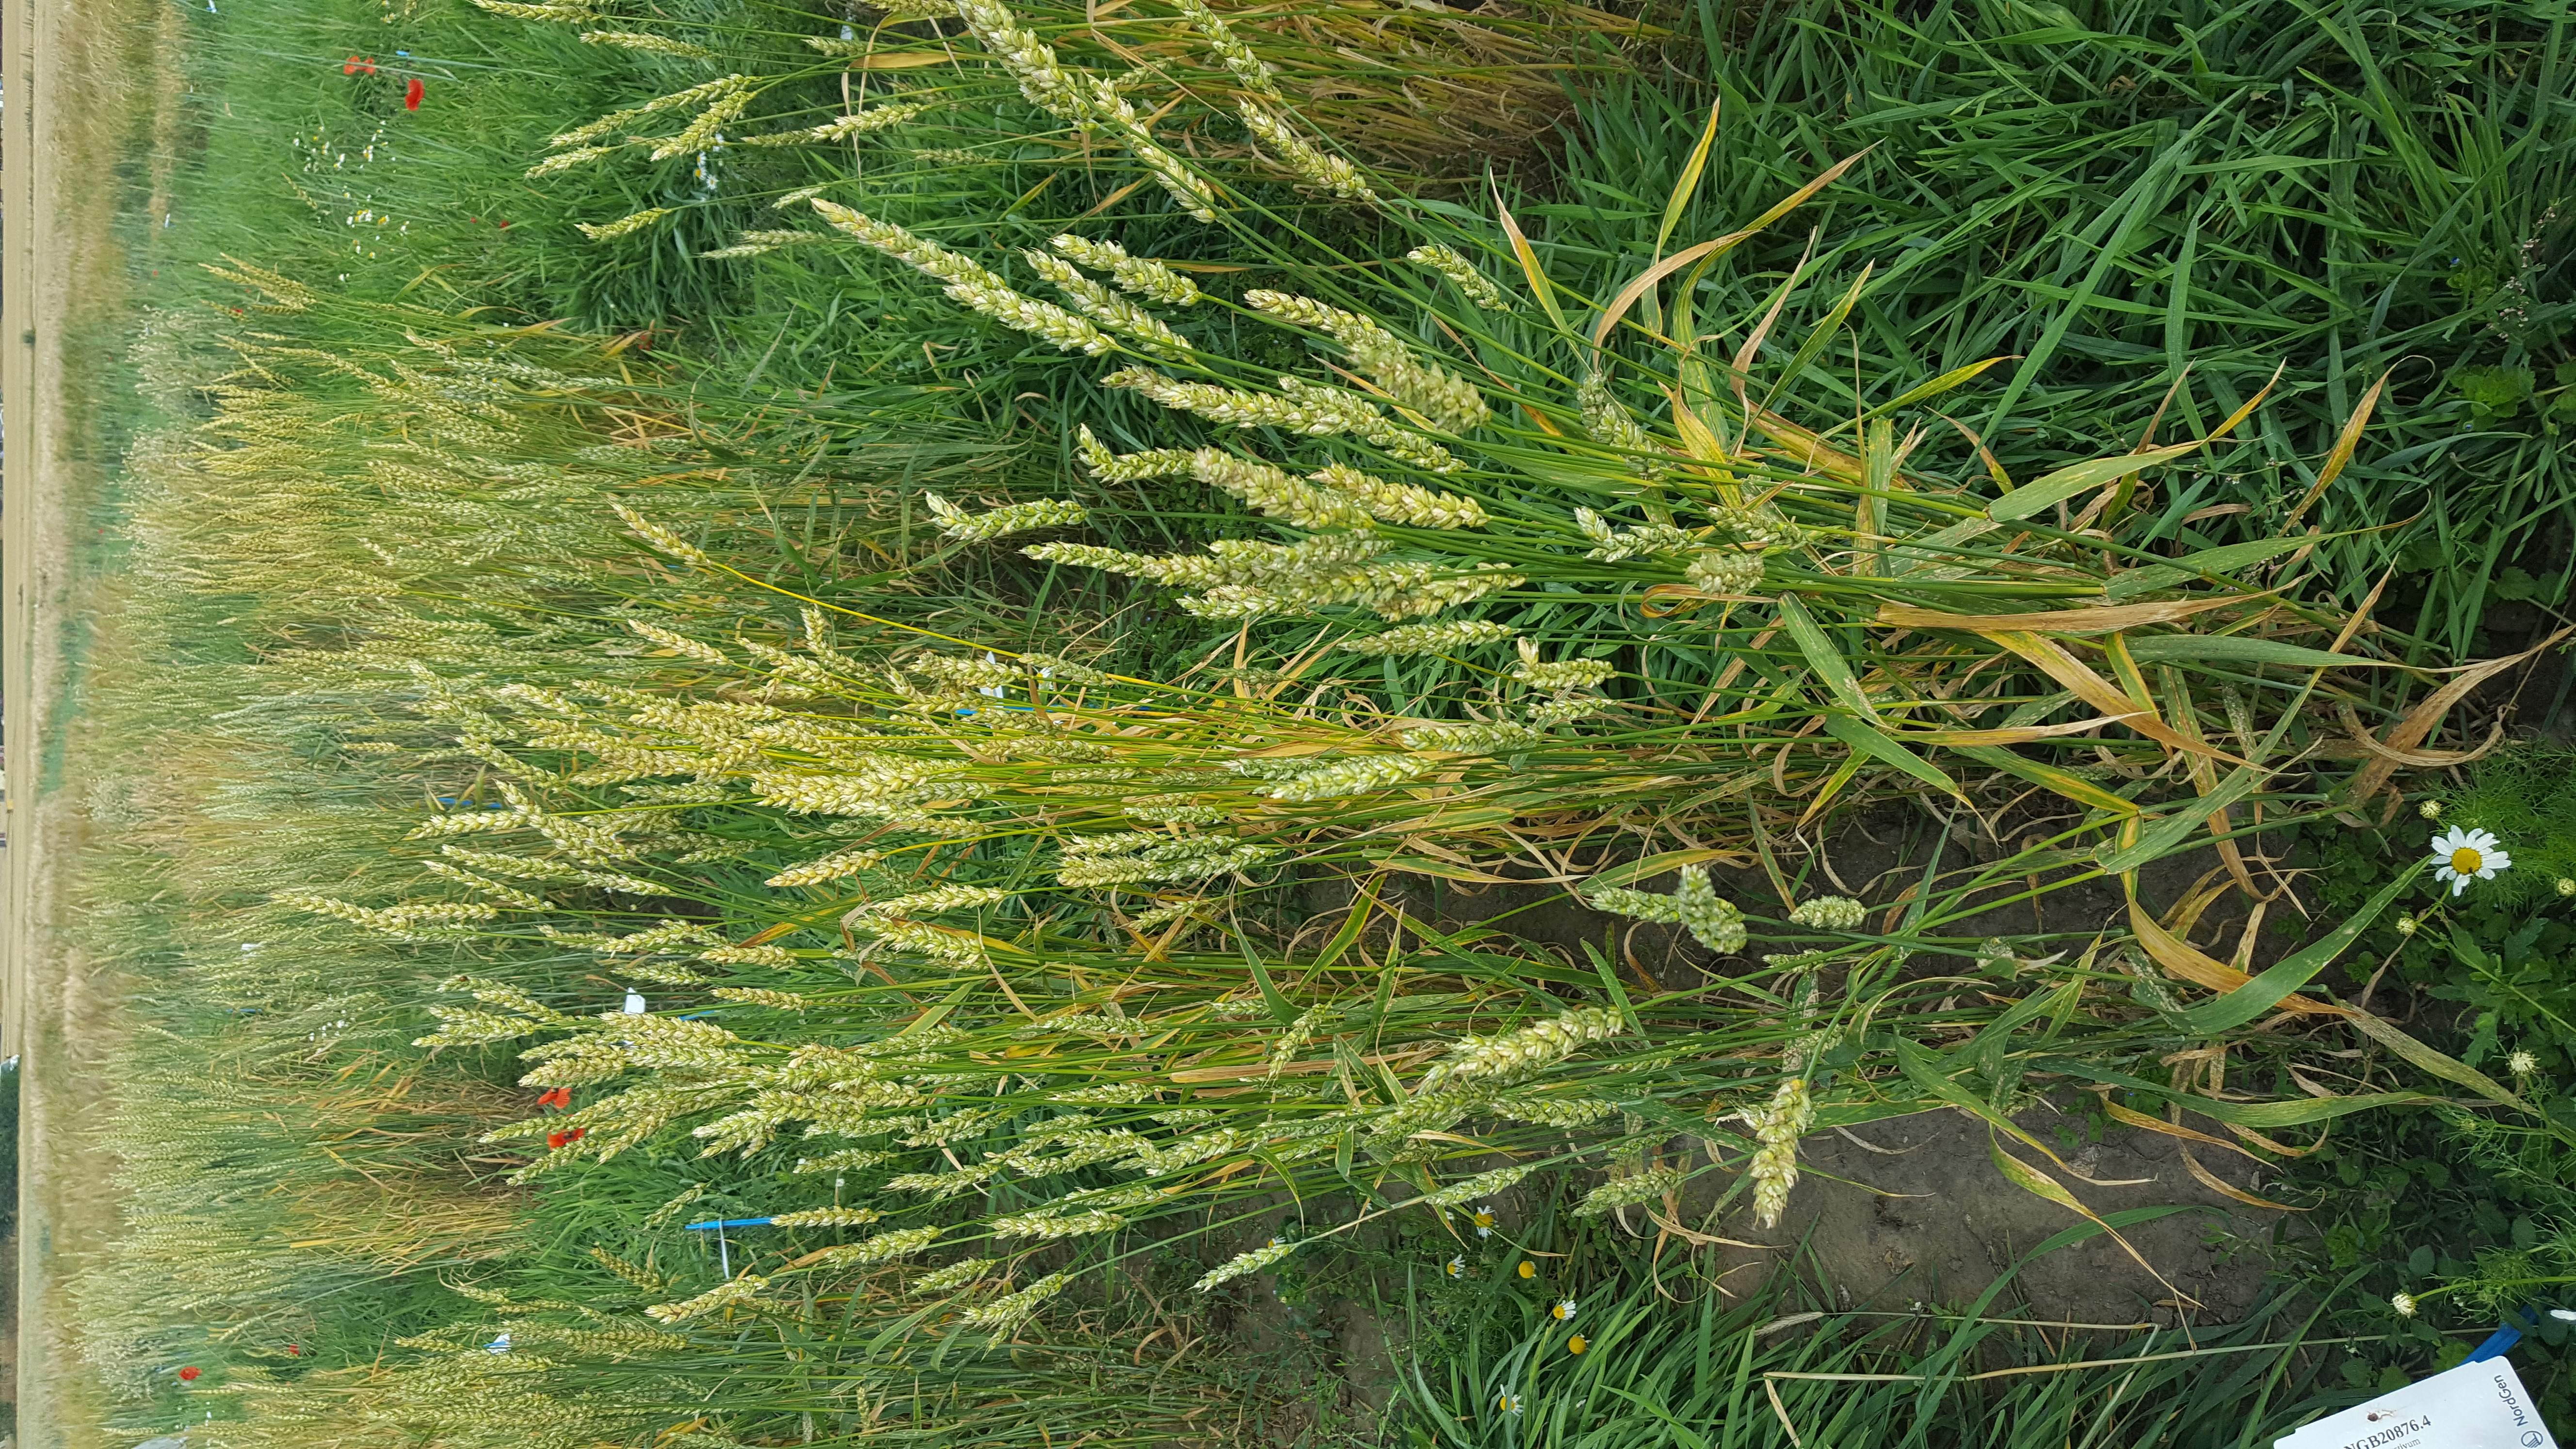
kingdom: Plantae
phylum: Tracheophyta
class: Liliopsida
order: Poales
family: Poaceae
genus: Triticum
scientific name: Triticum aestivum
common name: Common wheat
